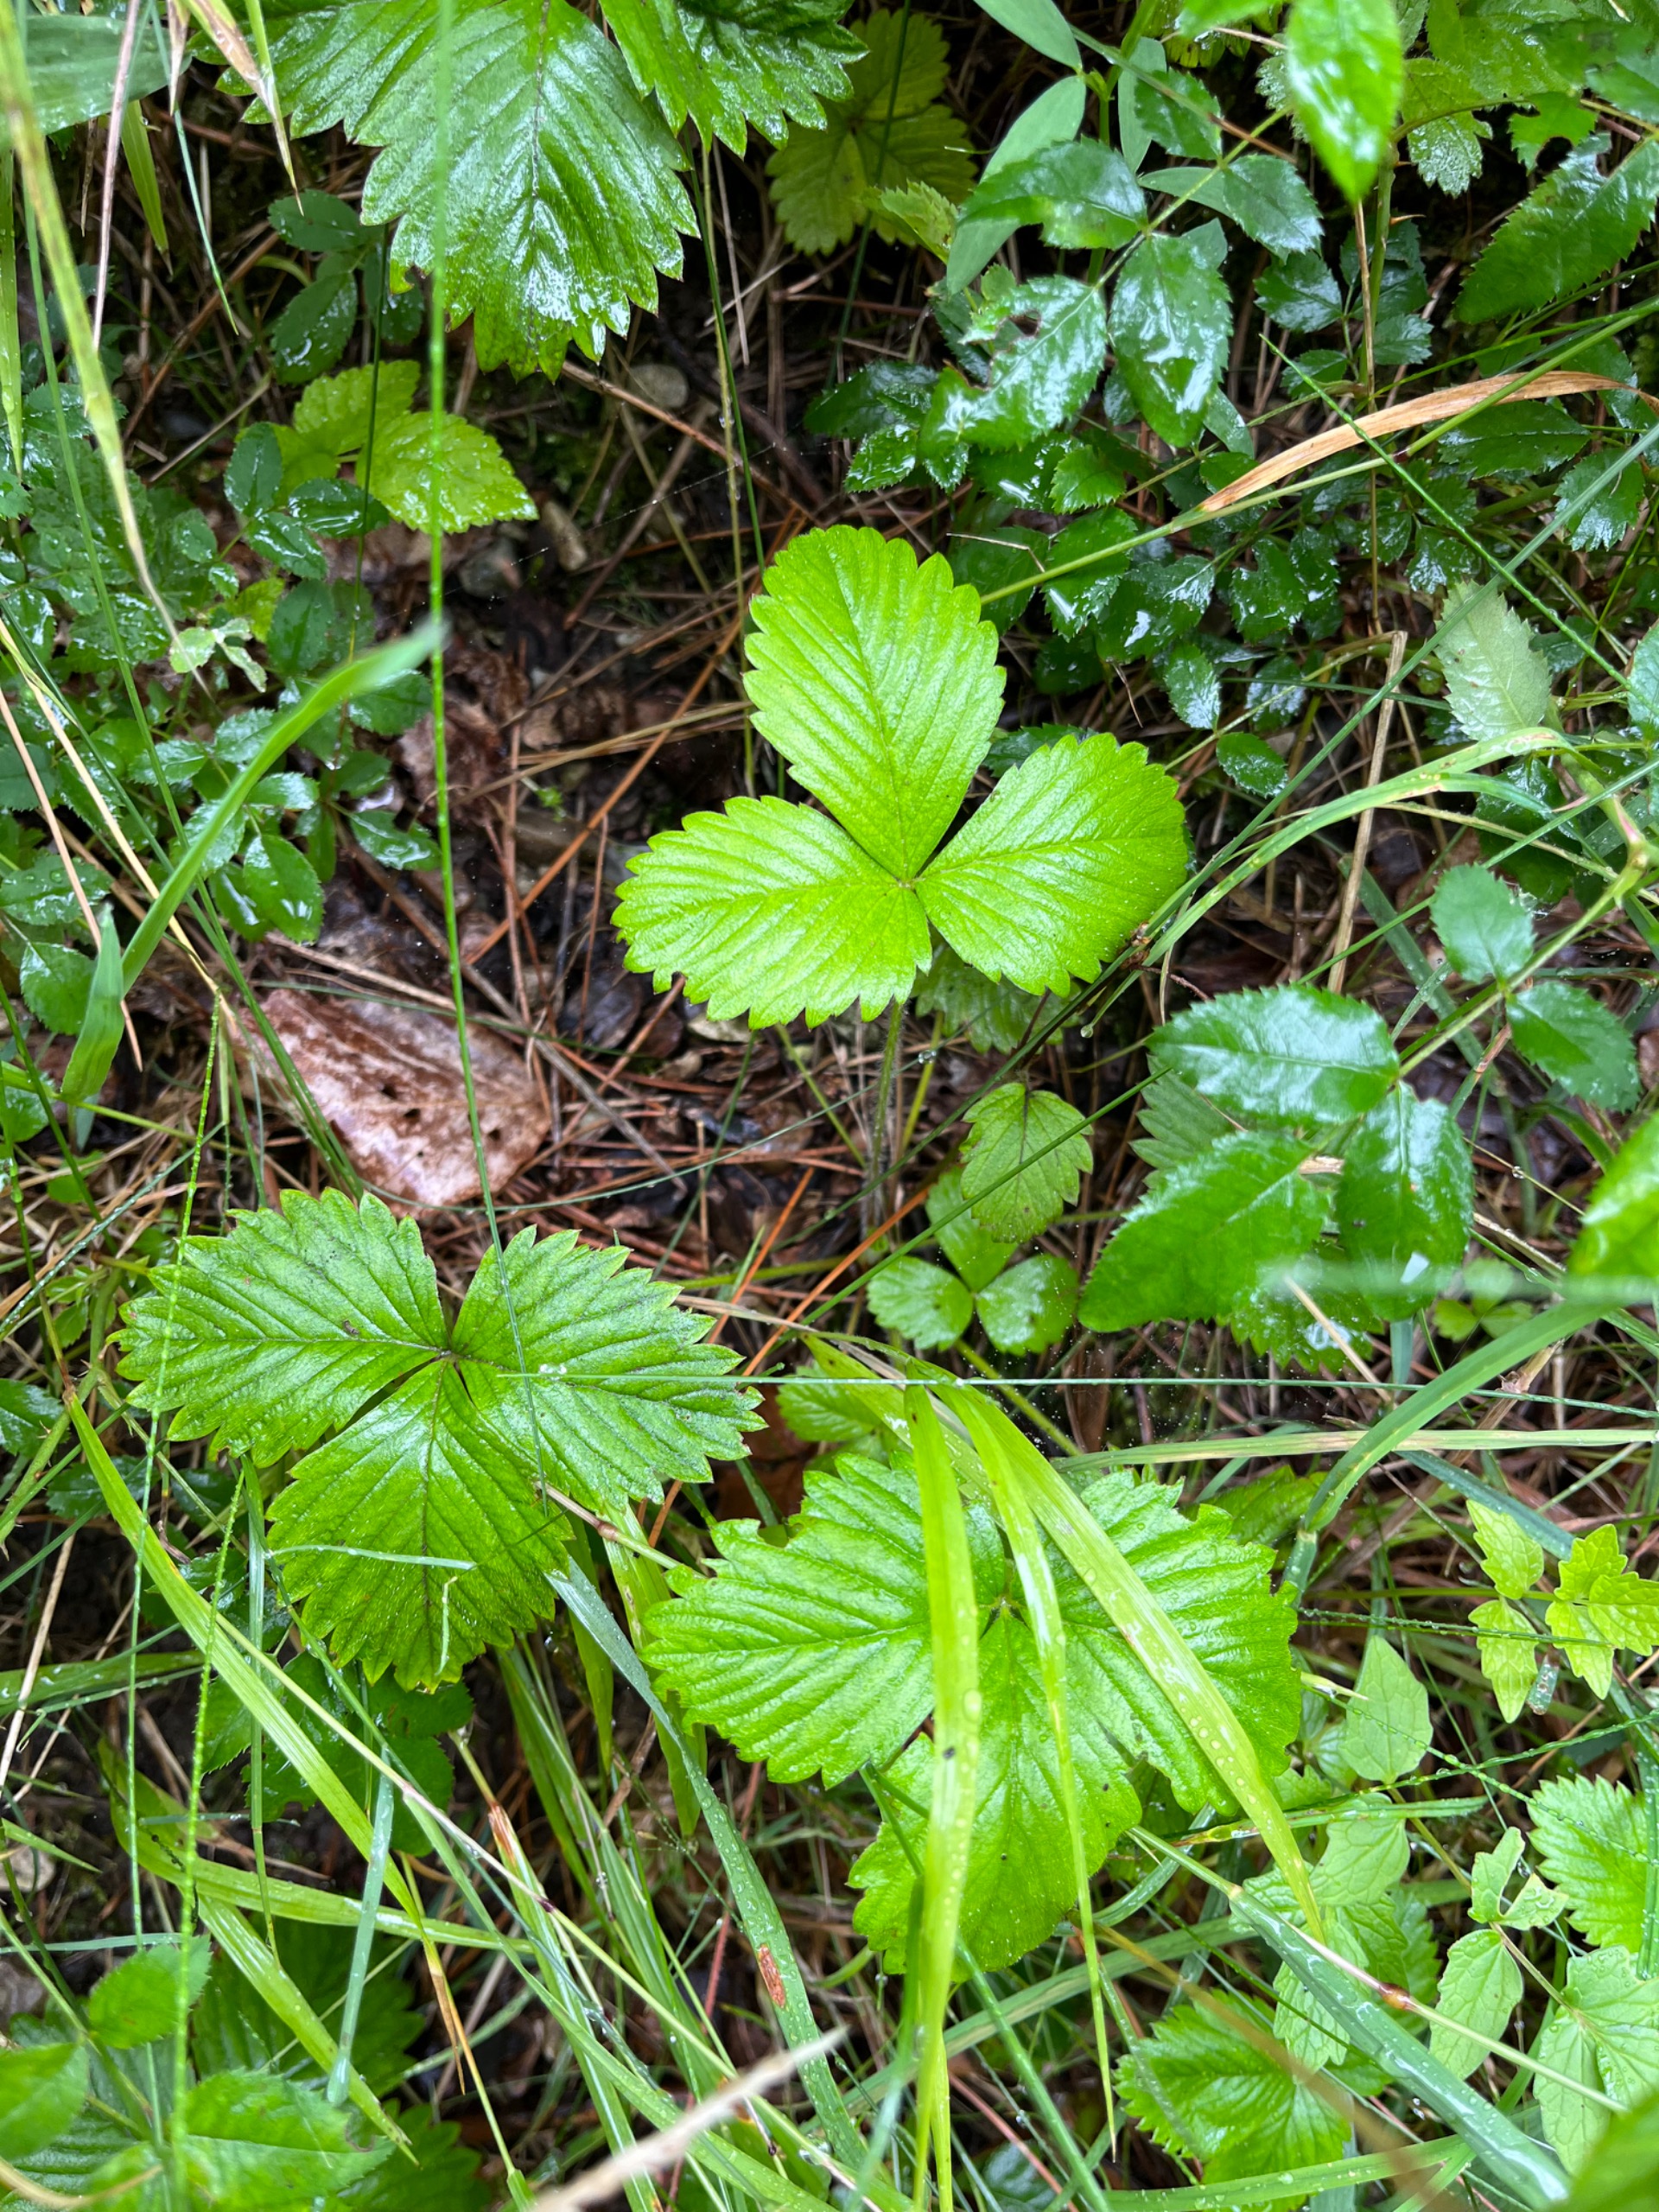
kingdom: Plantae
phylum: Tracheophyta
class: Magnoliopsida
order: Rosales
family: Rosaceae
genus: Fragaria
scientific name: Fragaria vesca
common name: Skov-jordbær
